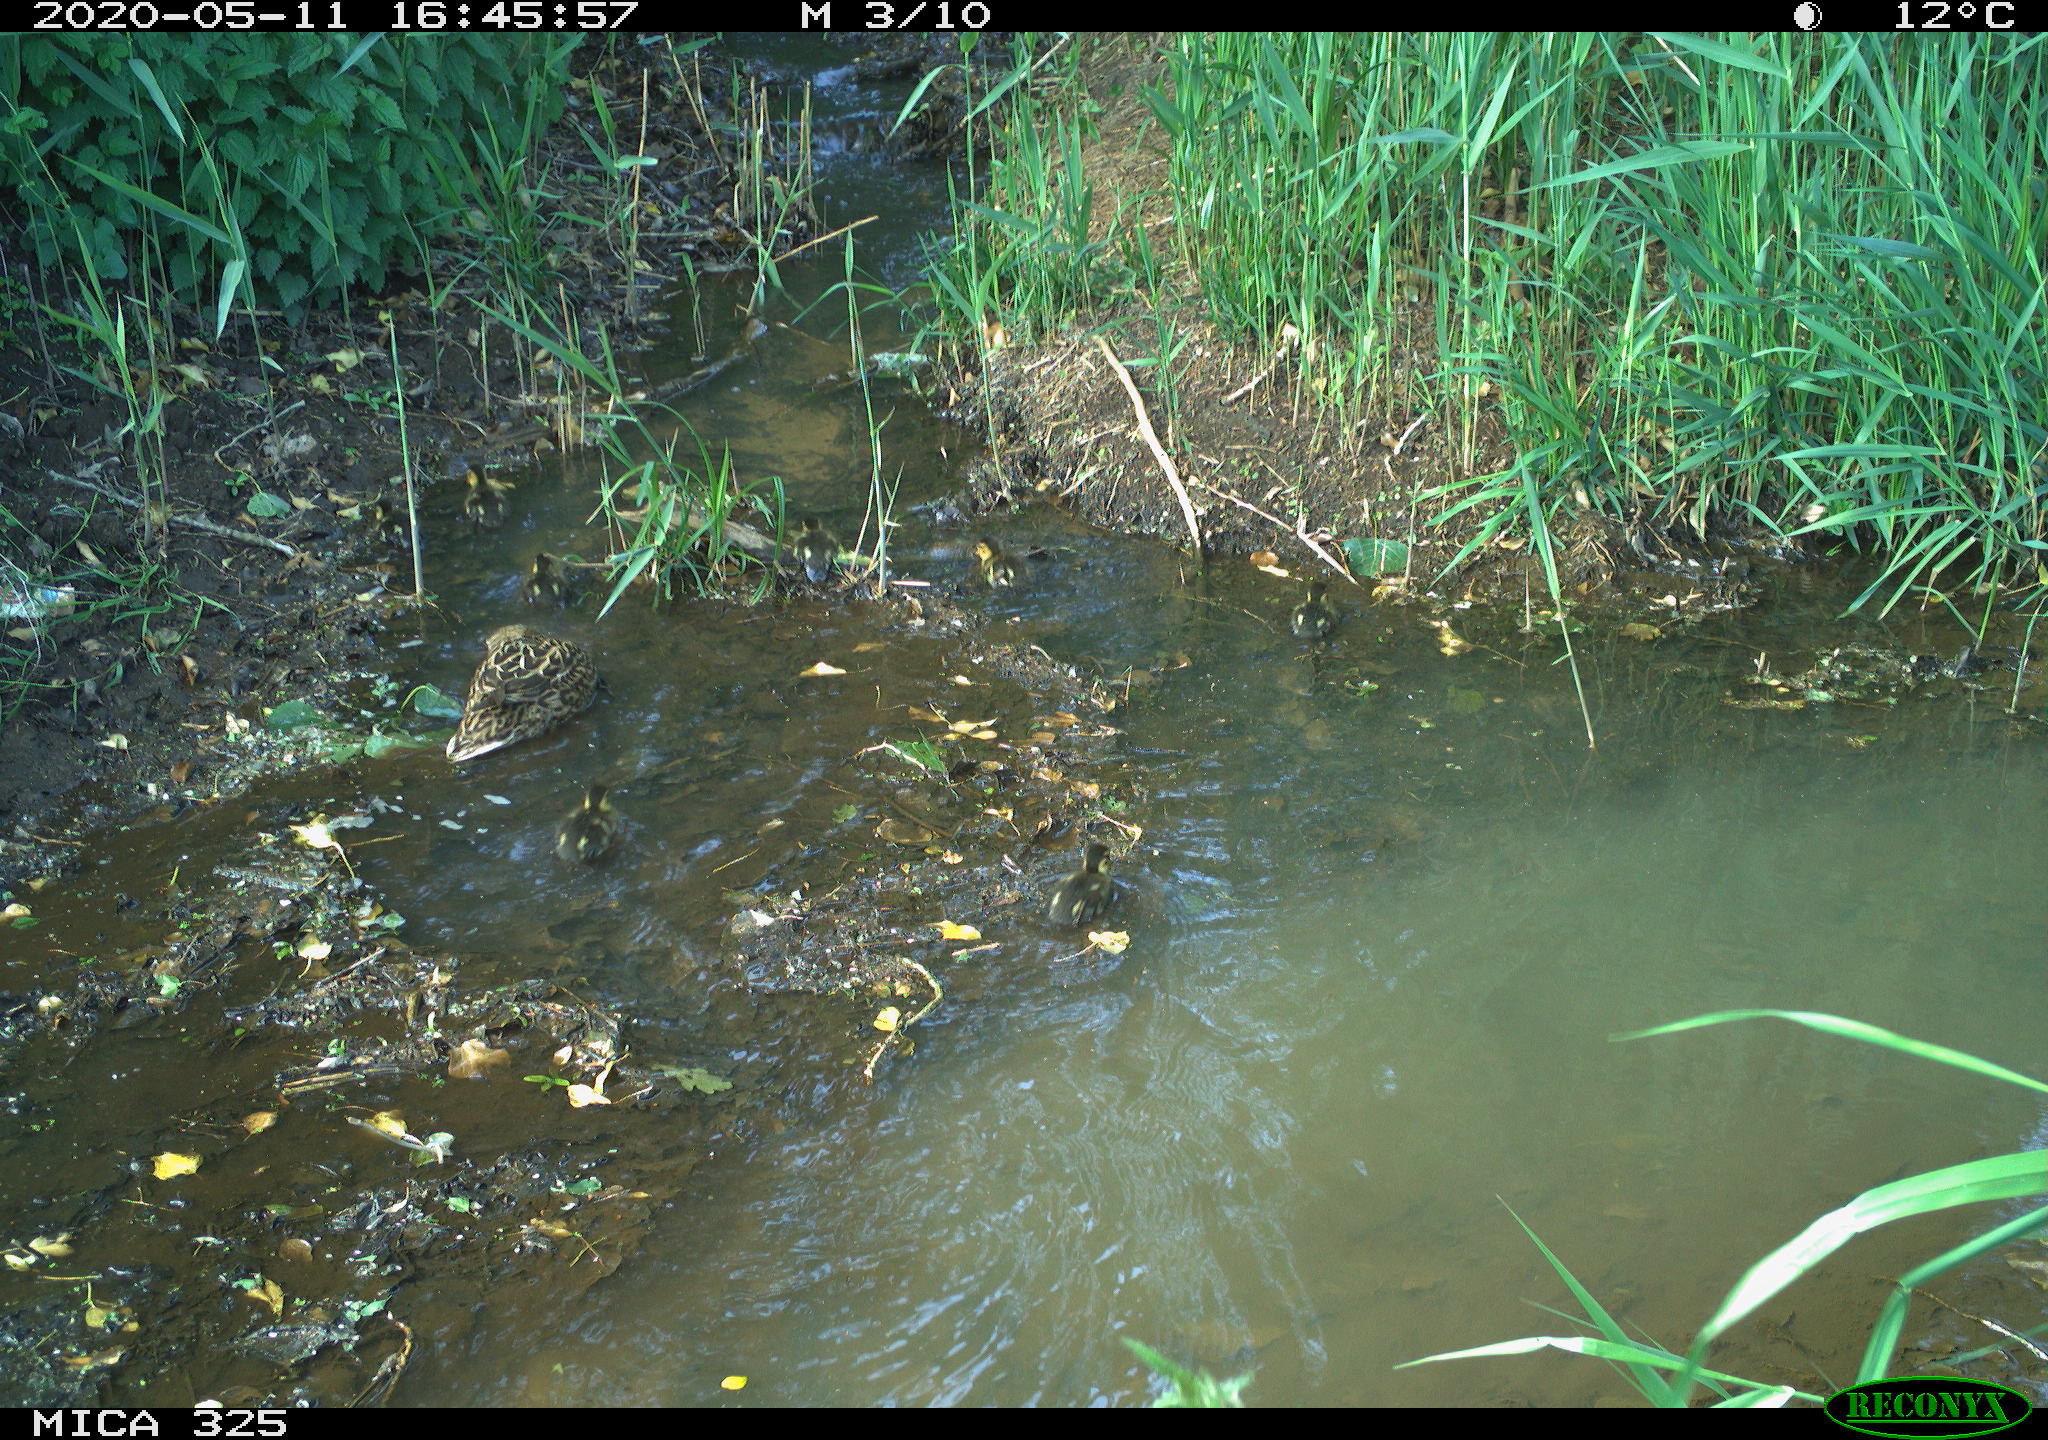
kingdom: Animalia
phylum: Chordata
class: Aves
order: Anseriformes
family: Anatidae
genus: Anas
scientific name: Anas platyrhynchos
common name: Mallard
